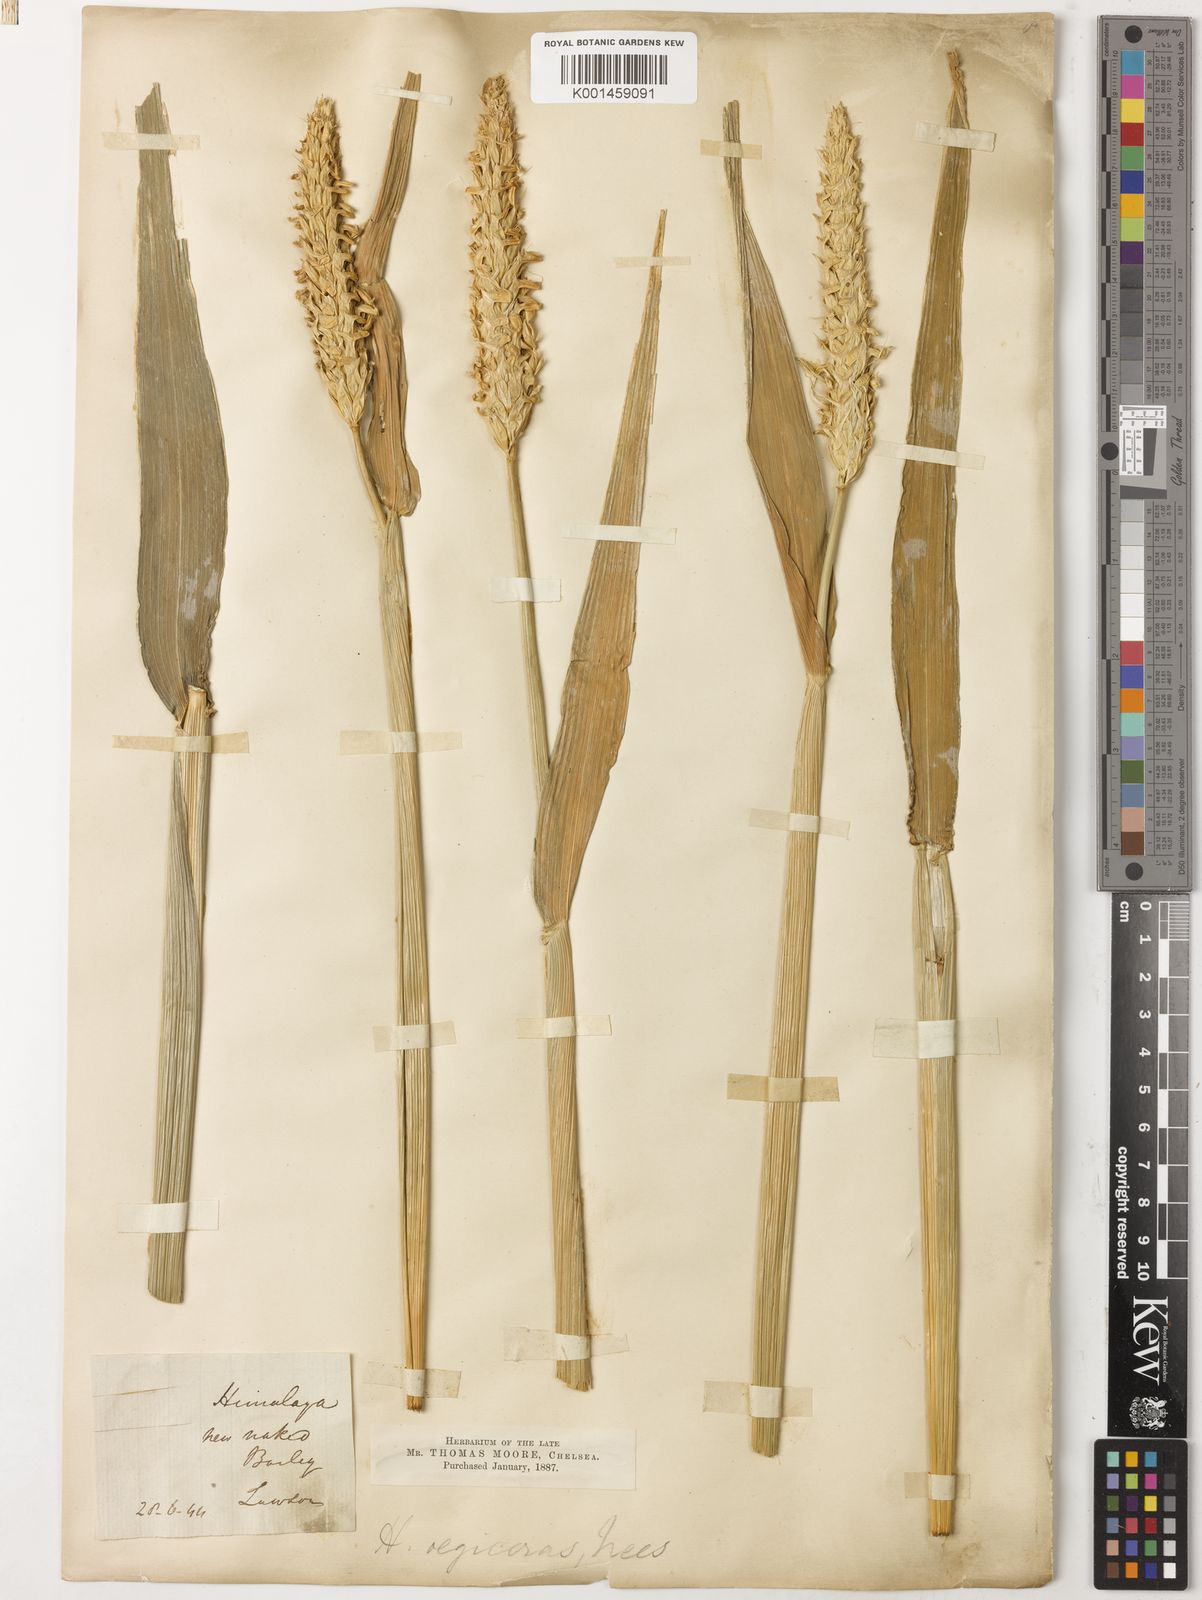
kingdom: Plantae
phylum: Tracheophyta
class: Liliopsida
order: Poales
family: Poaceae
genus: Hordeum
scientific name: Hordeum vulgare
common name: Common barley
